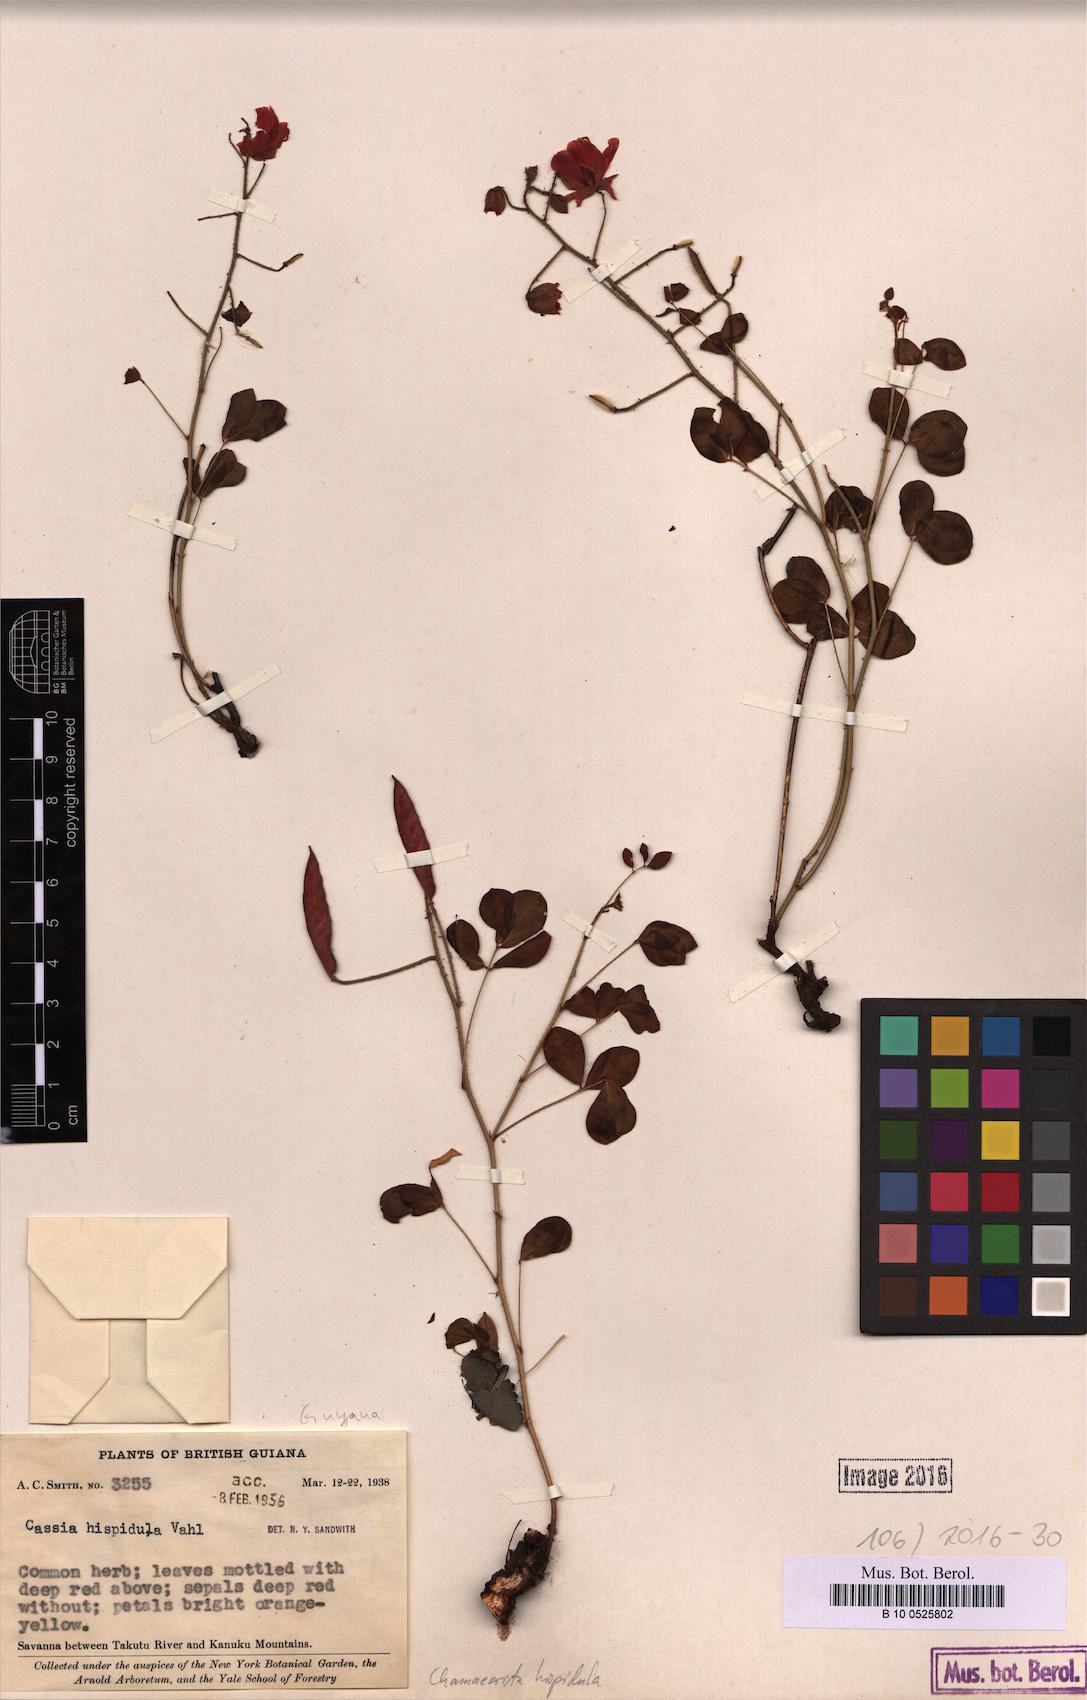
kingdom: Plantae
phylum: Tracheophyta
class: Magnoliopsida
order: Fabales
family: Fabaceae
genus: Chamaecrista
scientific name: Chamaecrista hispidula
